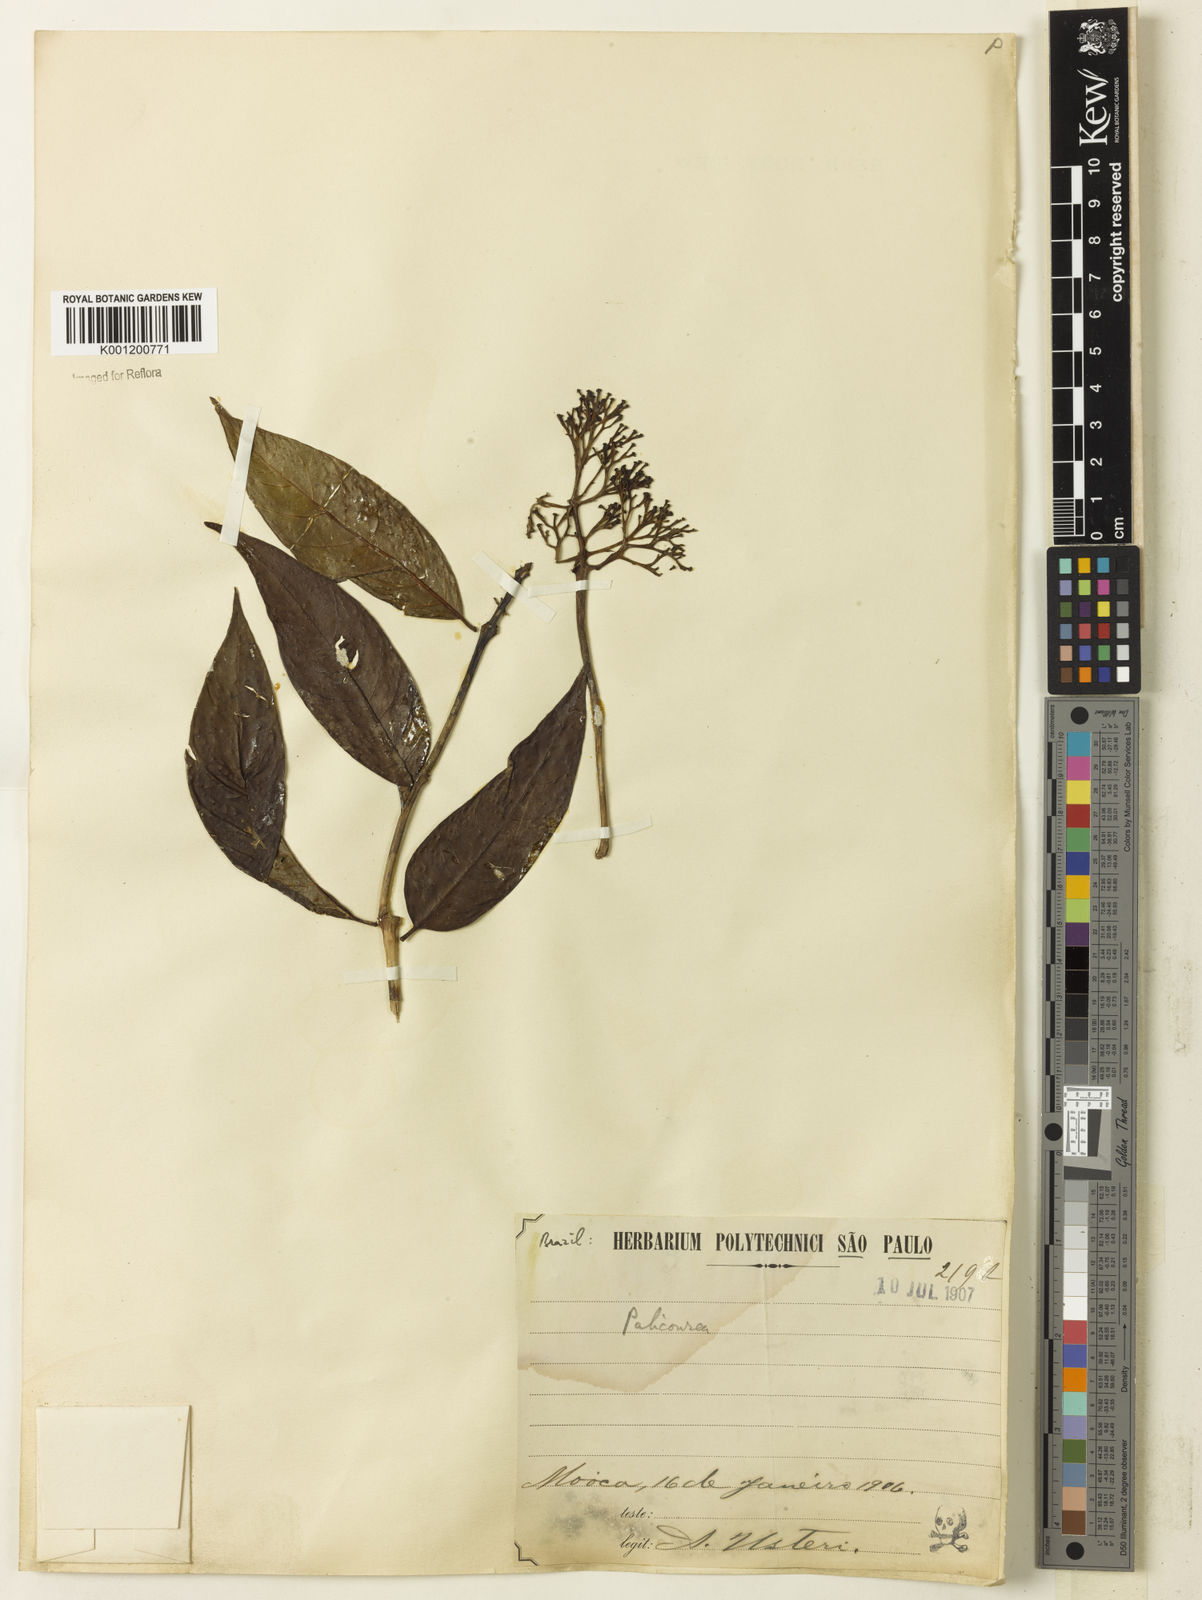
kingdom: Plantae
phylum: Tracheophyta
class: Magnoliopsida
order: Gentianales
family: Rubiaceae
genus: Palicourea
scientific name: Palicourea crocea
